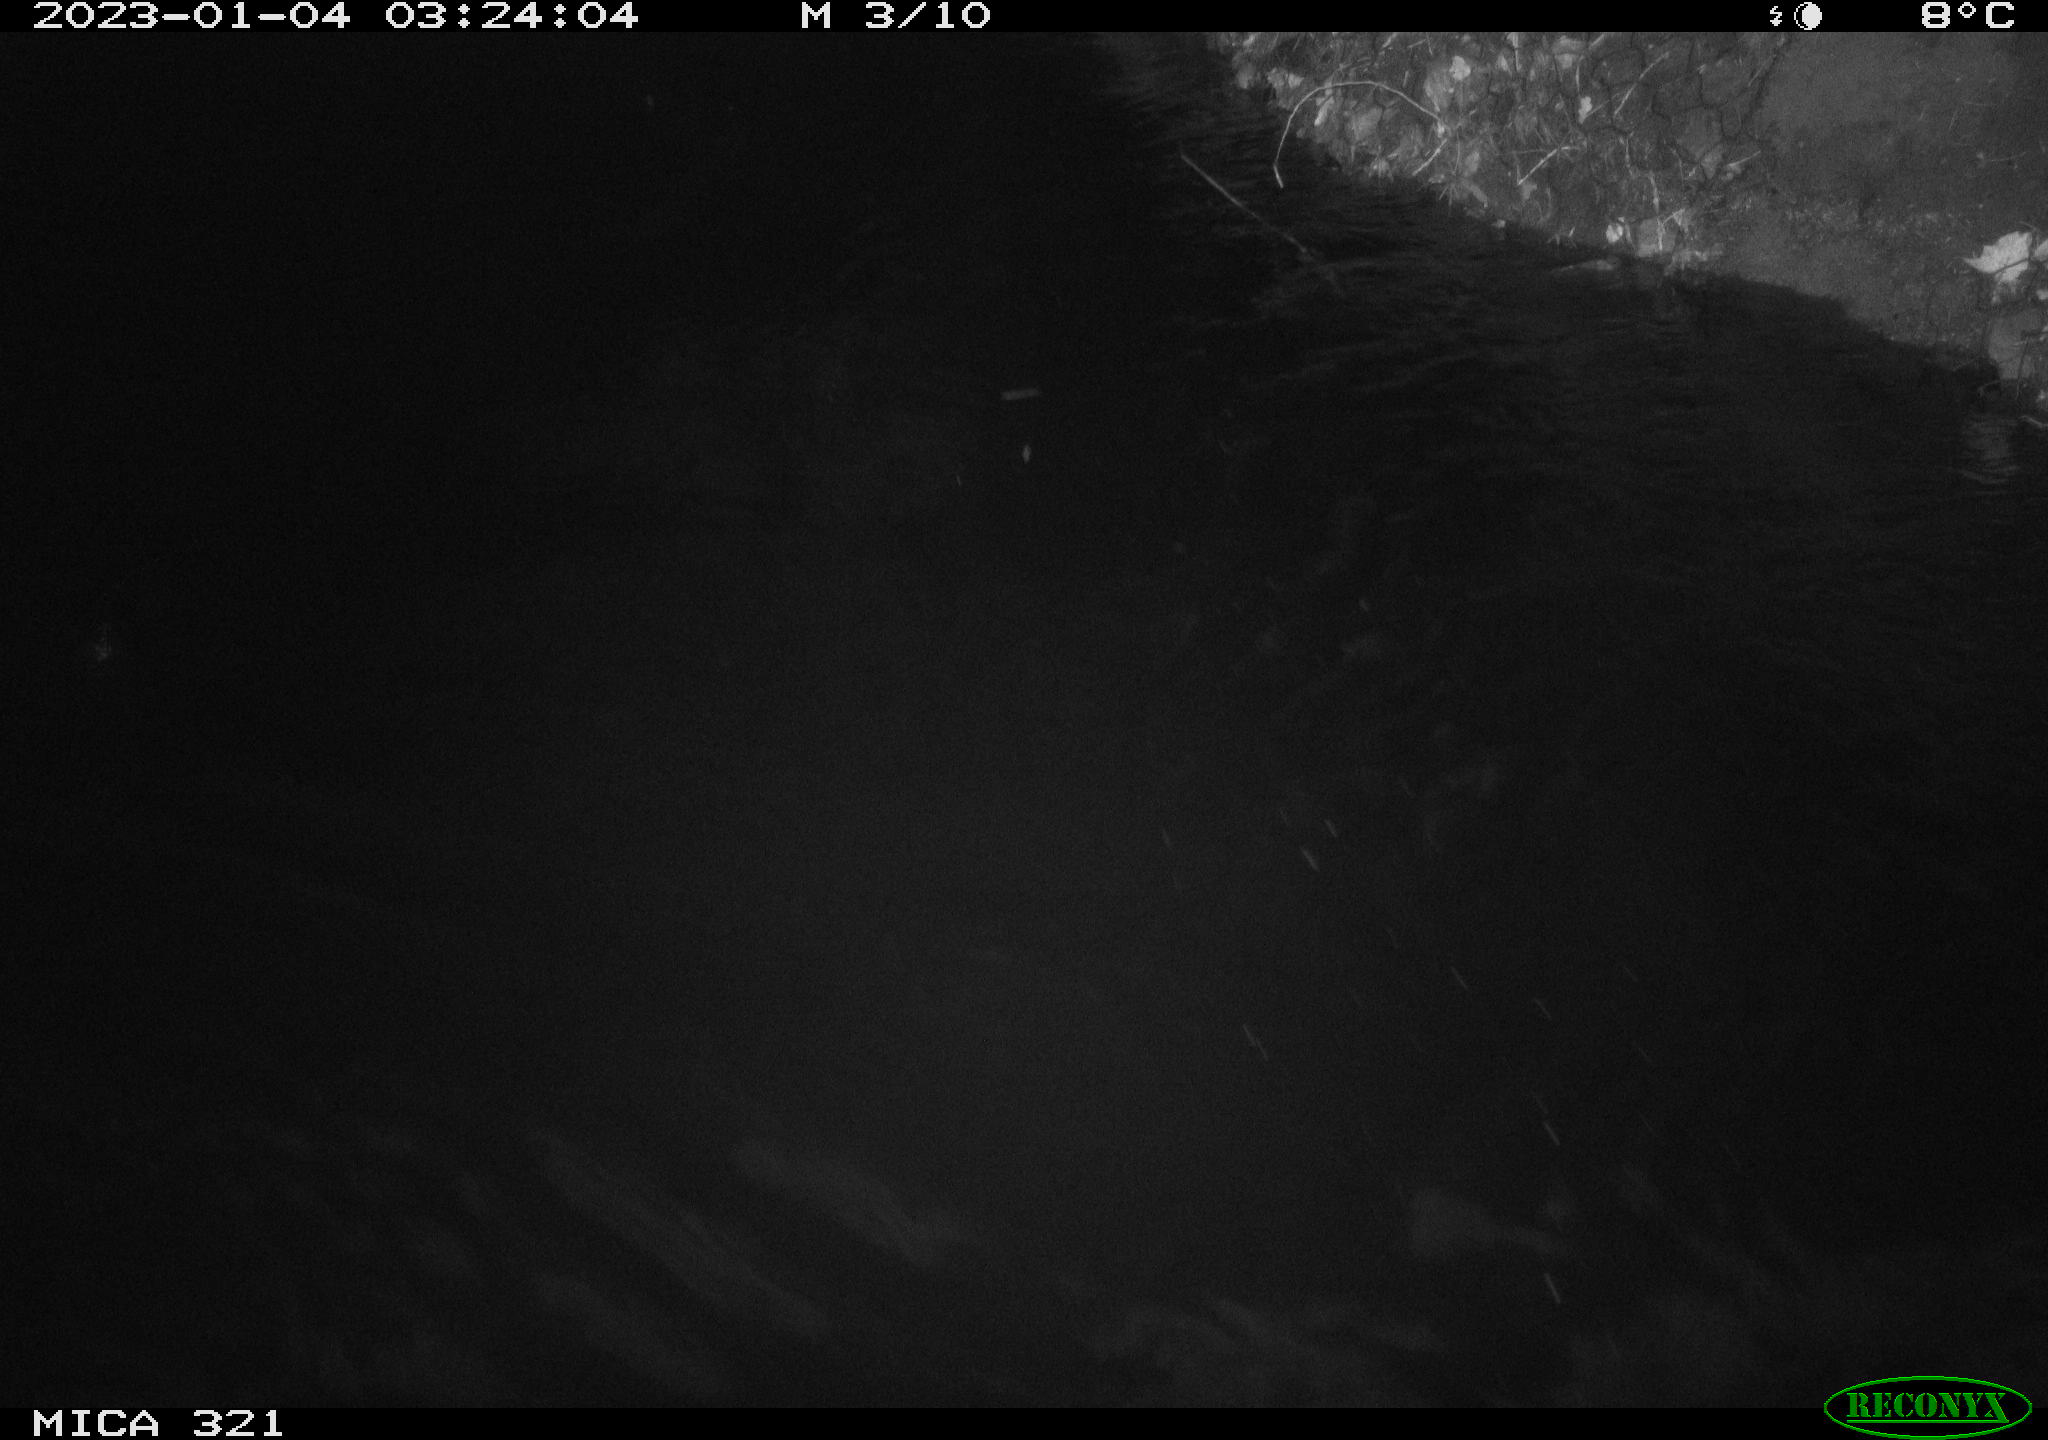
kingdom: Animalia
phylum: Chordata
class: Aves
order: Gruiformes
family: Rallidae
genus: Fulica
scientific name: Fulica atra
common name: Eurasian coot
